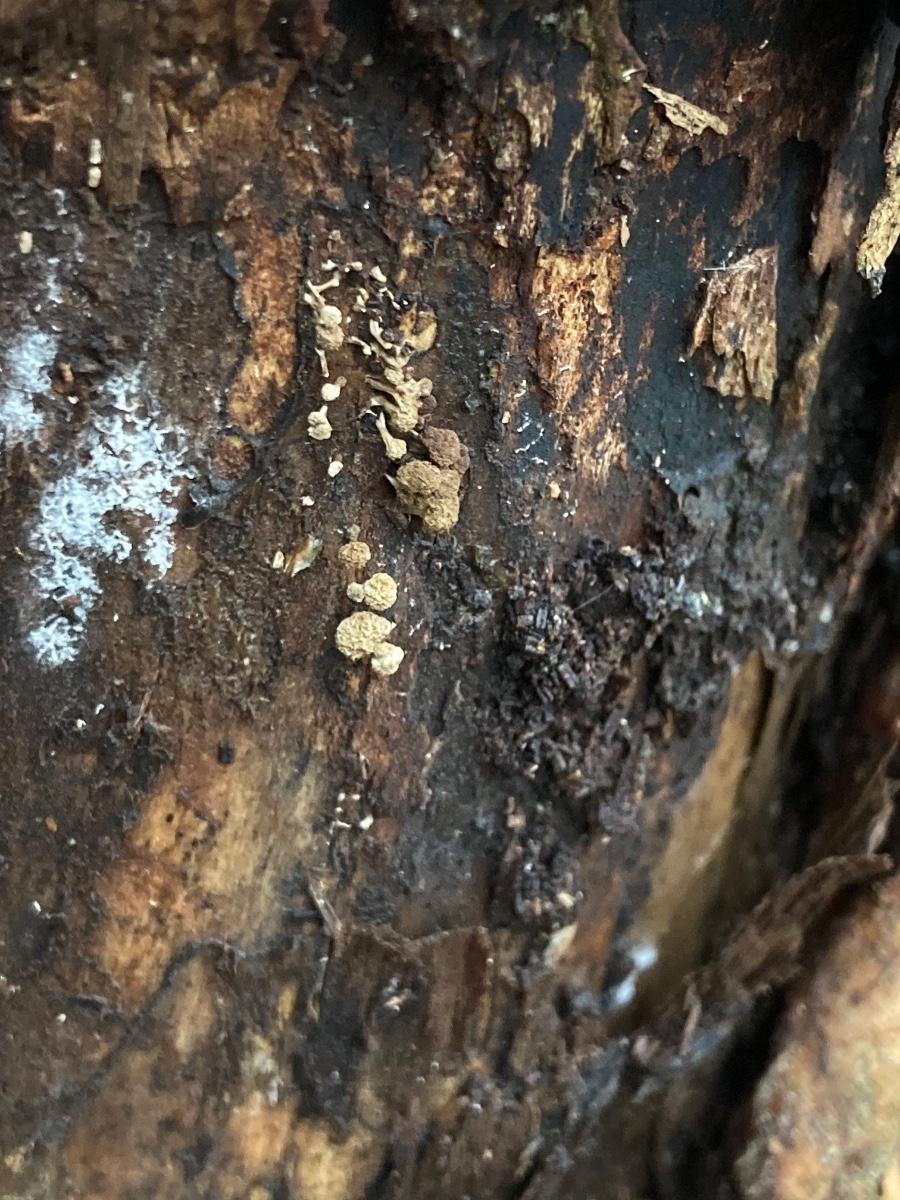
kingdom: Fungi
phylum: Basidiomycota
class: Atractiellomycetes
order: Atractiellales
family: Phleogenaceae
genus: Phleogena
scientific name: Phleogena faginea
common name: pudderkølle
